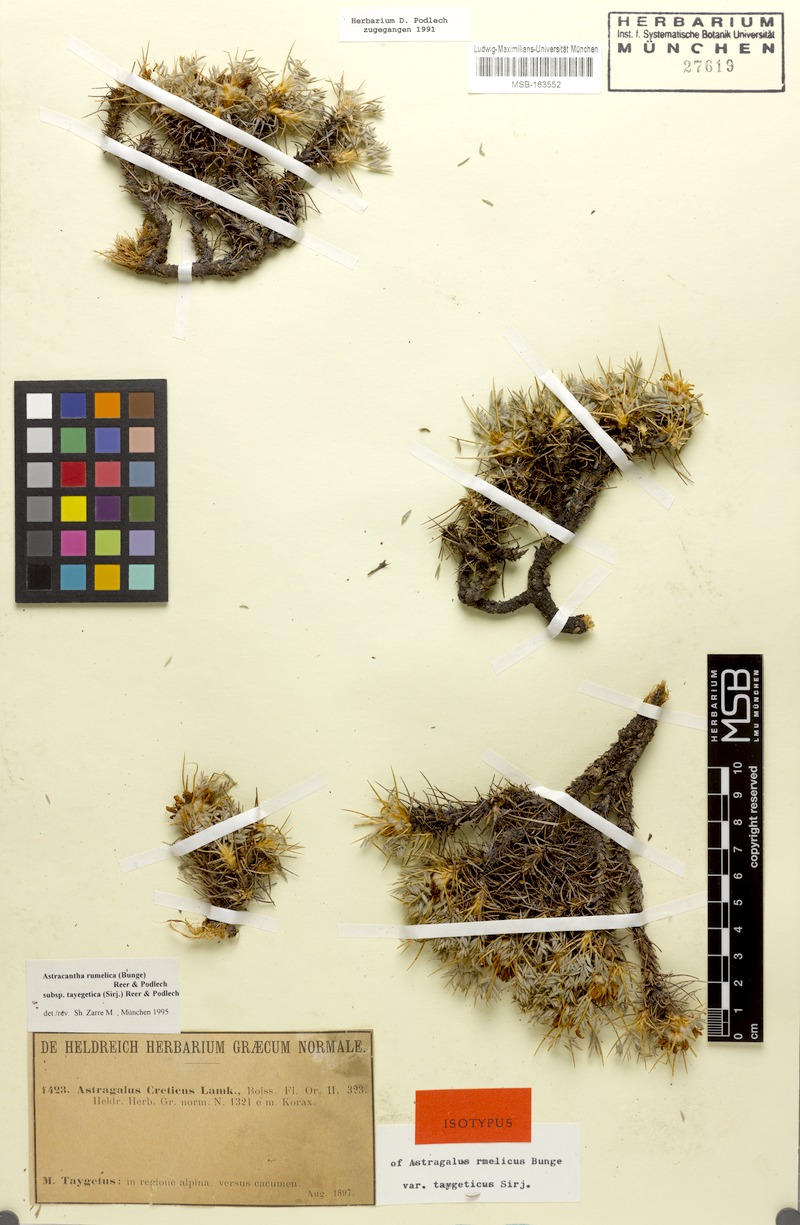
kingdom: Plantae
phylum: Tracheophyta
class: Magnoliopsida
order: Fabales
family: Fabaceae
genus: Astragalus
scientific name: Astragalus rumelicus
